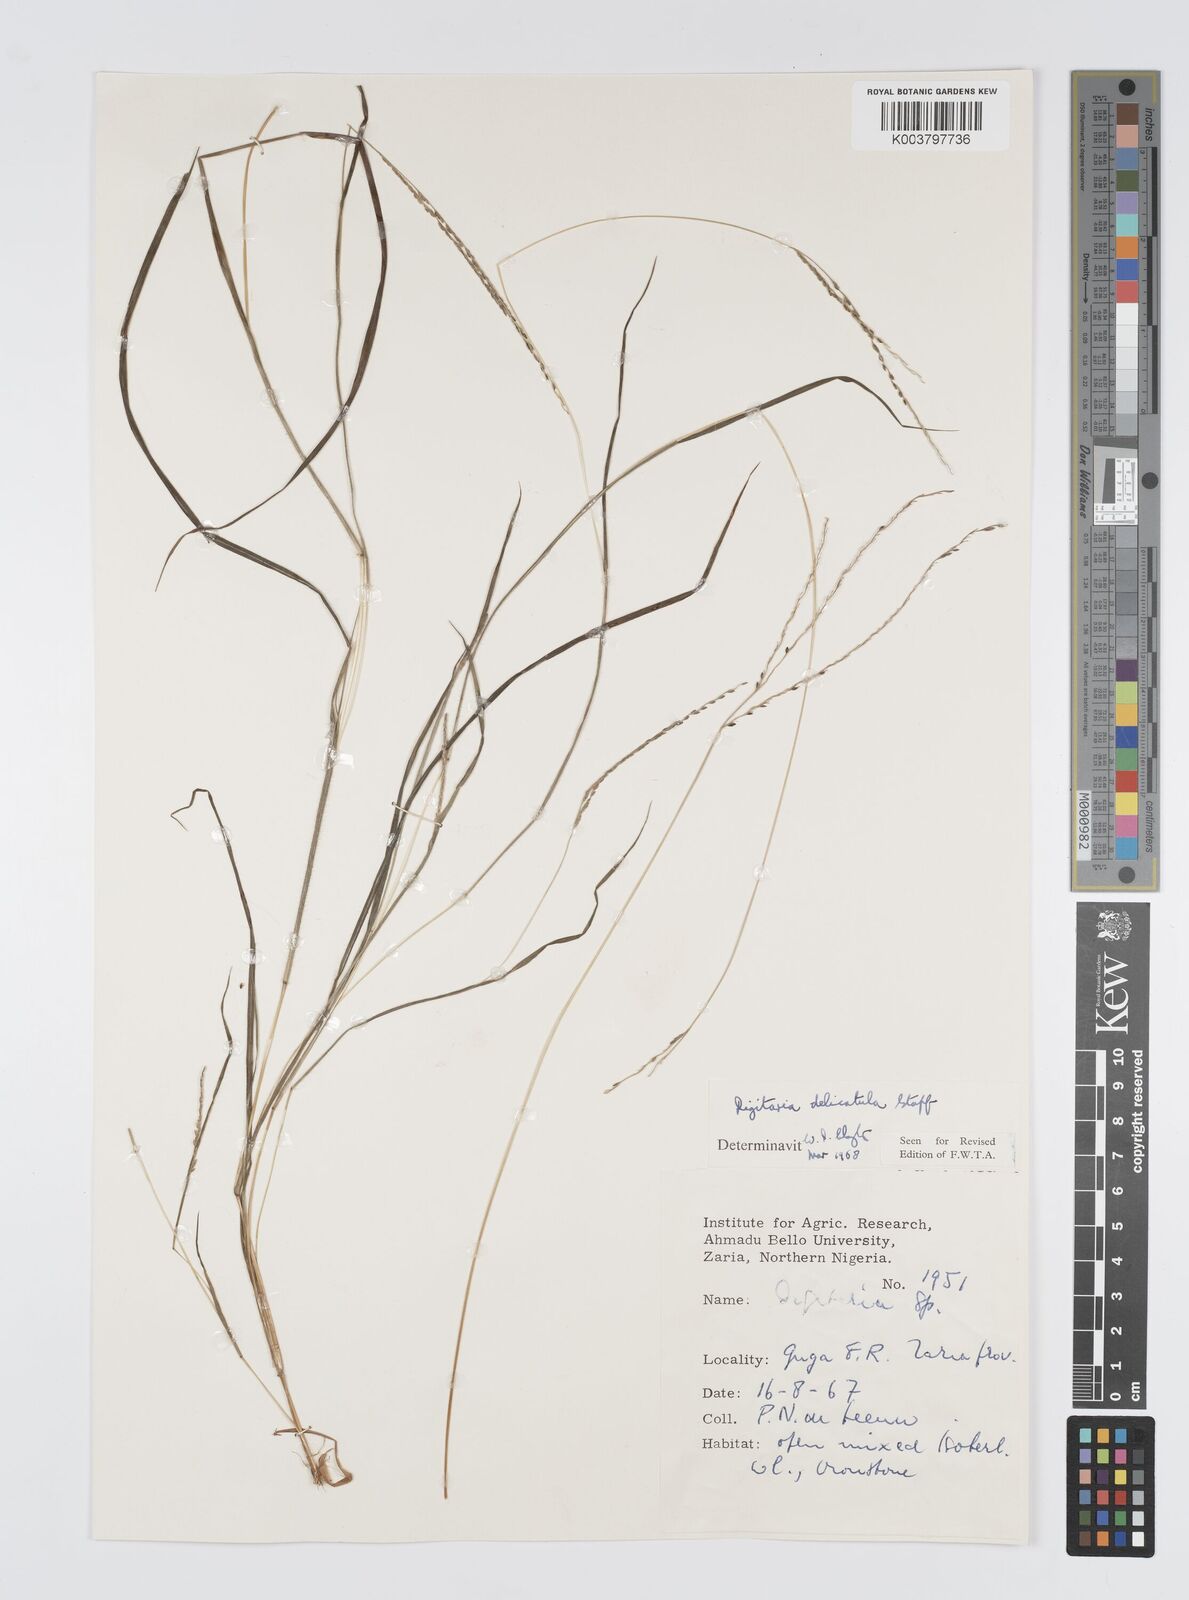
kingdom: Plantae
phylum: Tracheophyta
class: Liliopsida
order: Poales
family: Poaceae
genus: Digitaria
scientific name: Digitaria delicatula
